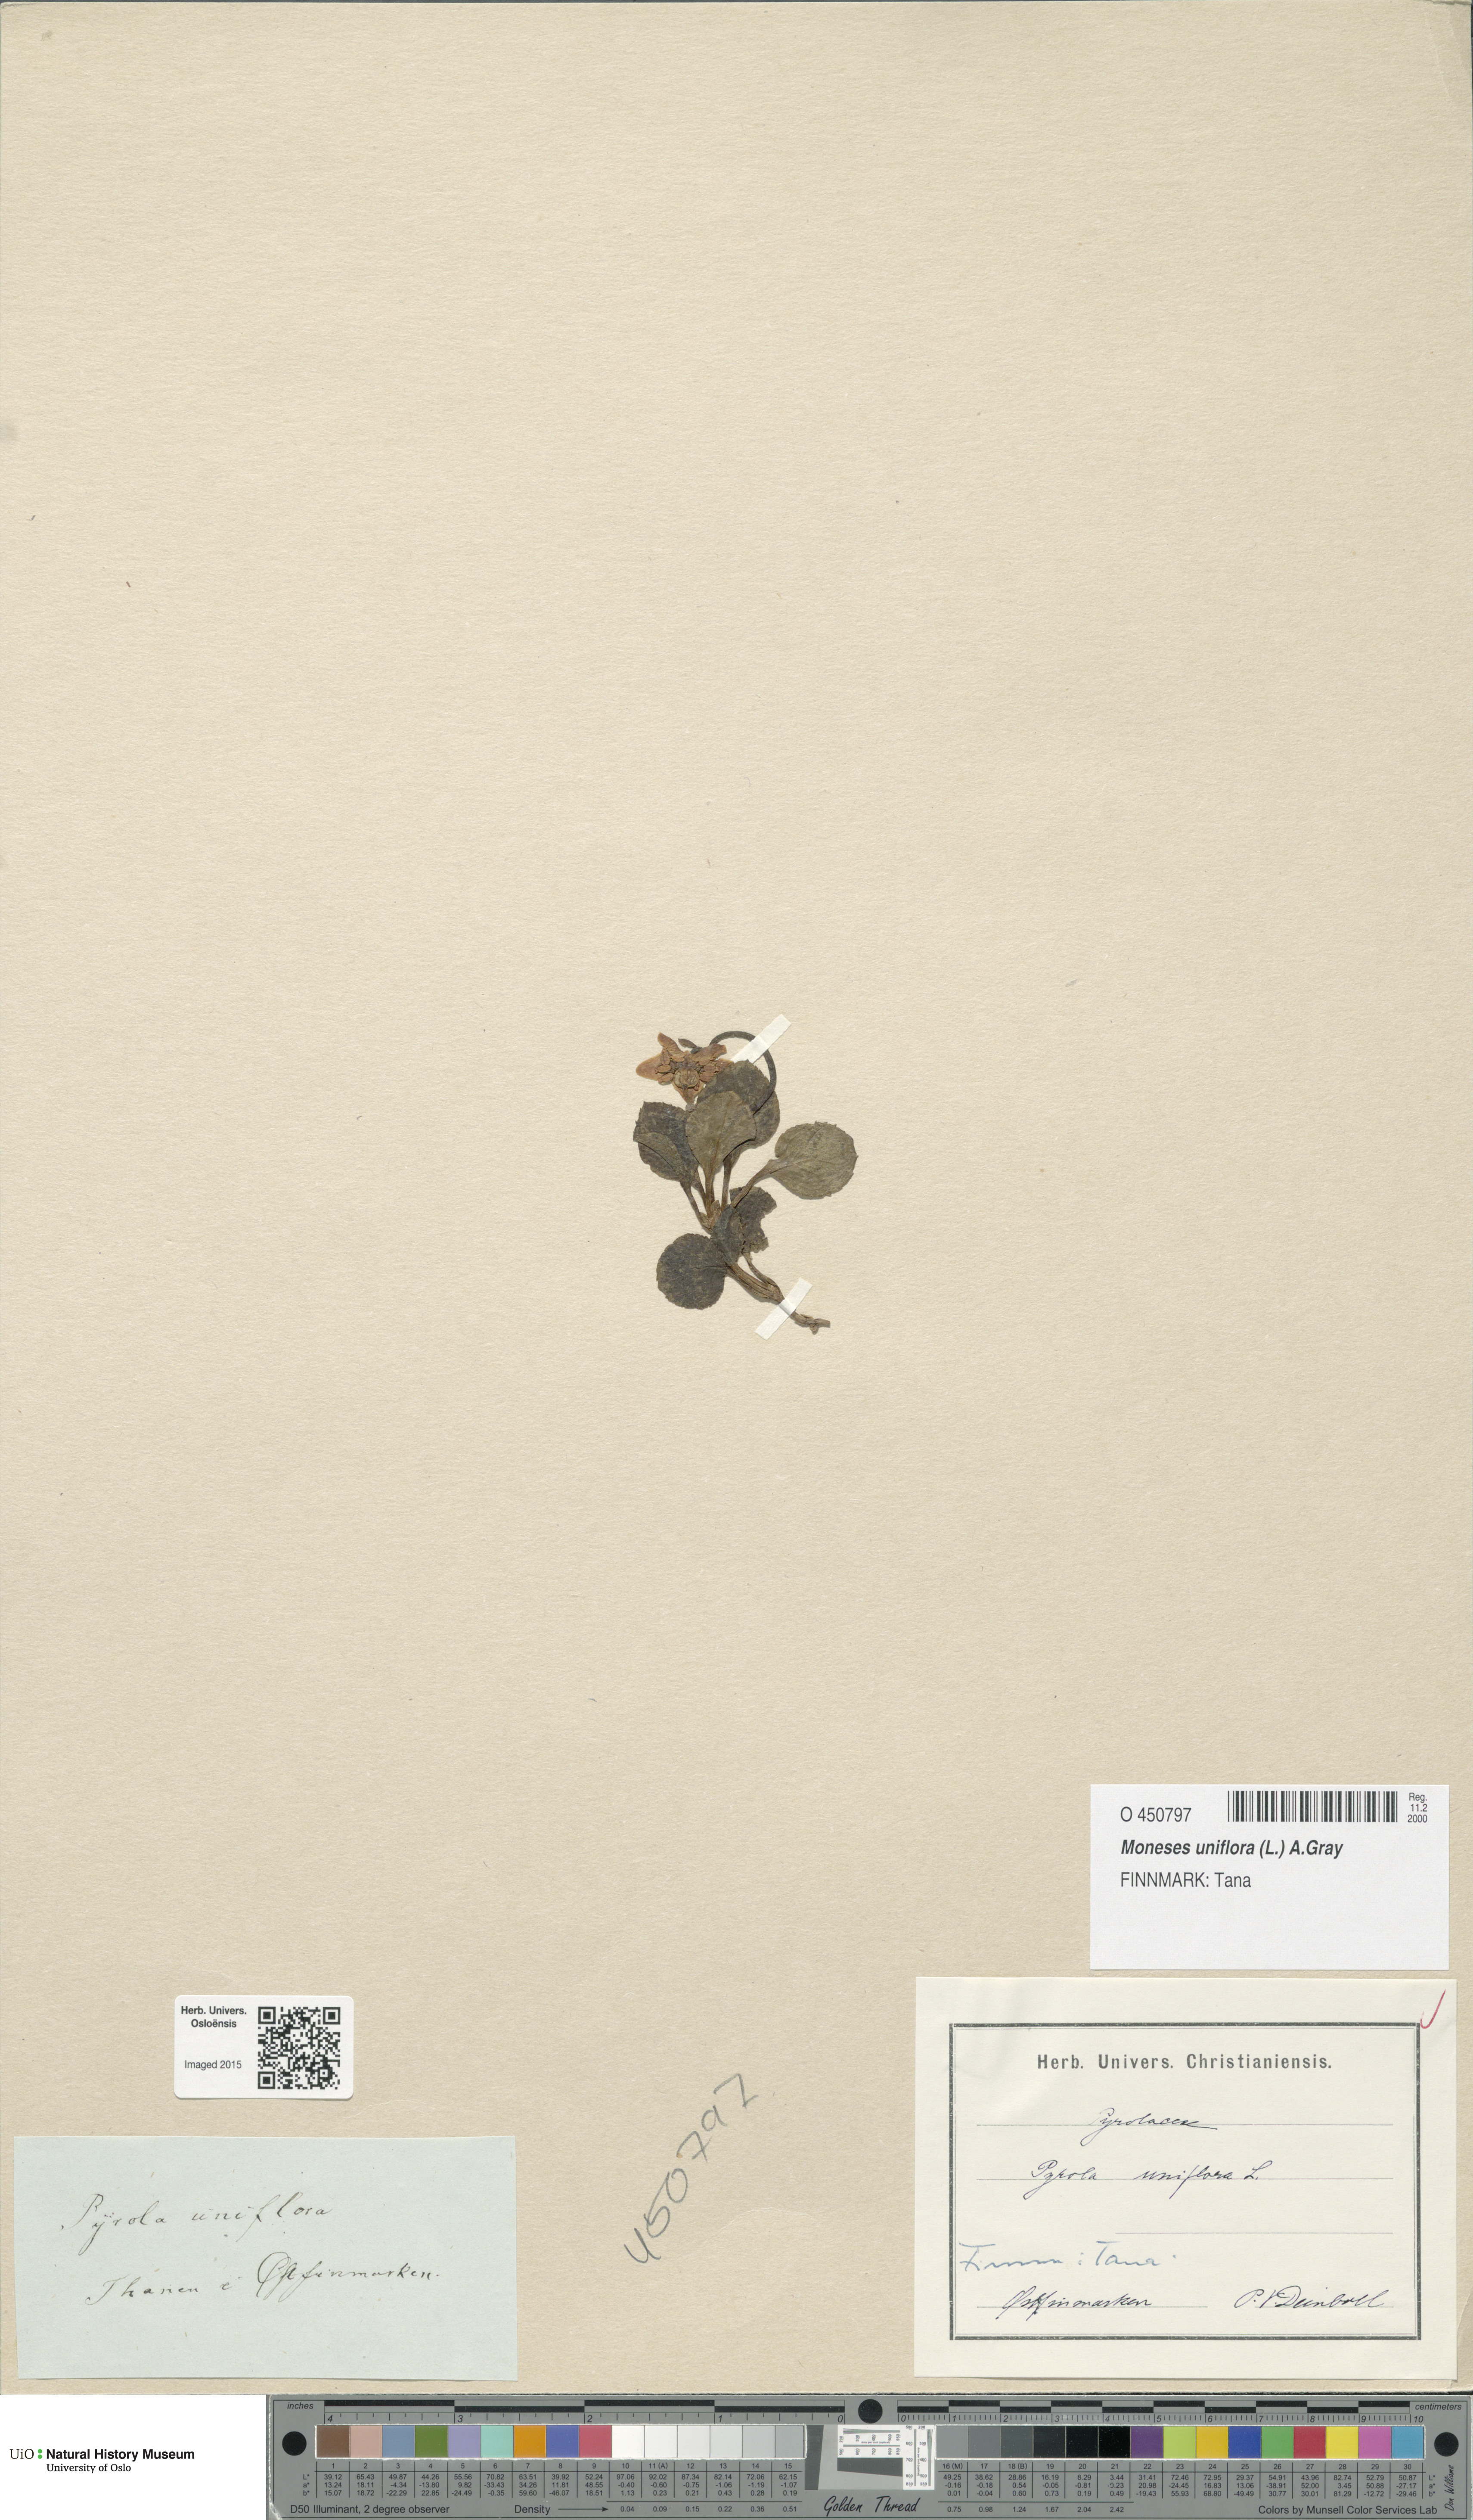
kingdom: Plantae
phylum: Tracheophyta
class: Magnoliopsida
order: Ericales
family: Ericaceae
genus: Moneses
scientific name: Moneses uniflora
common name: One-flowered wintergreen
